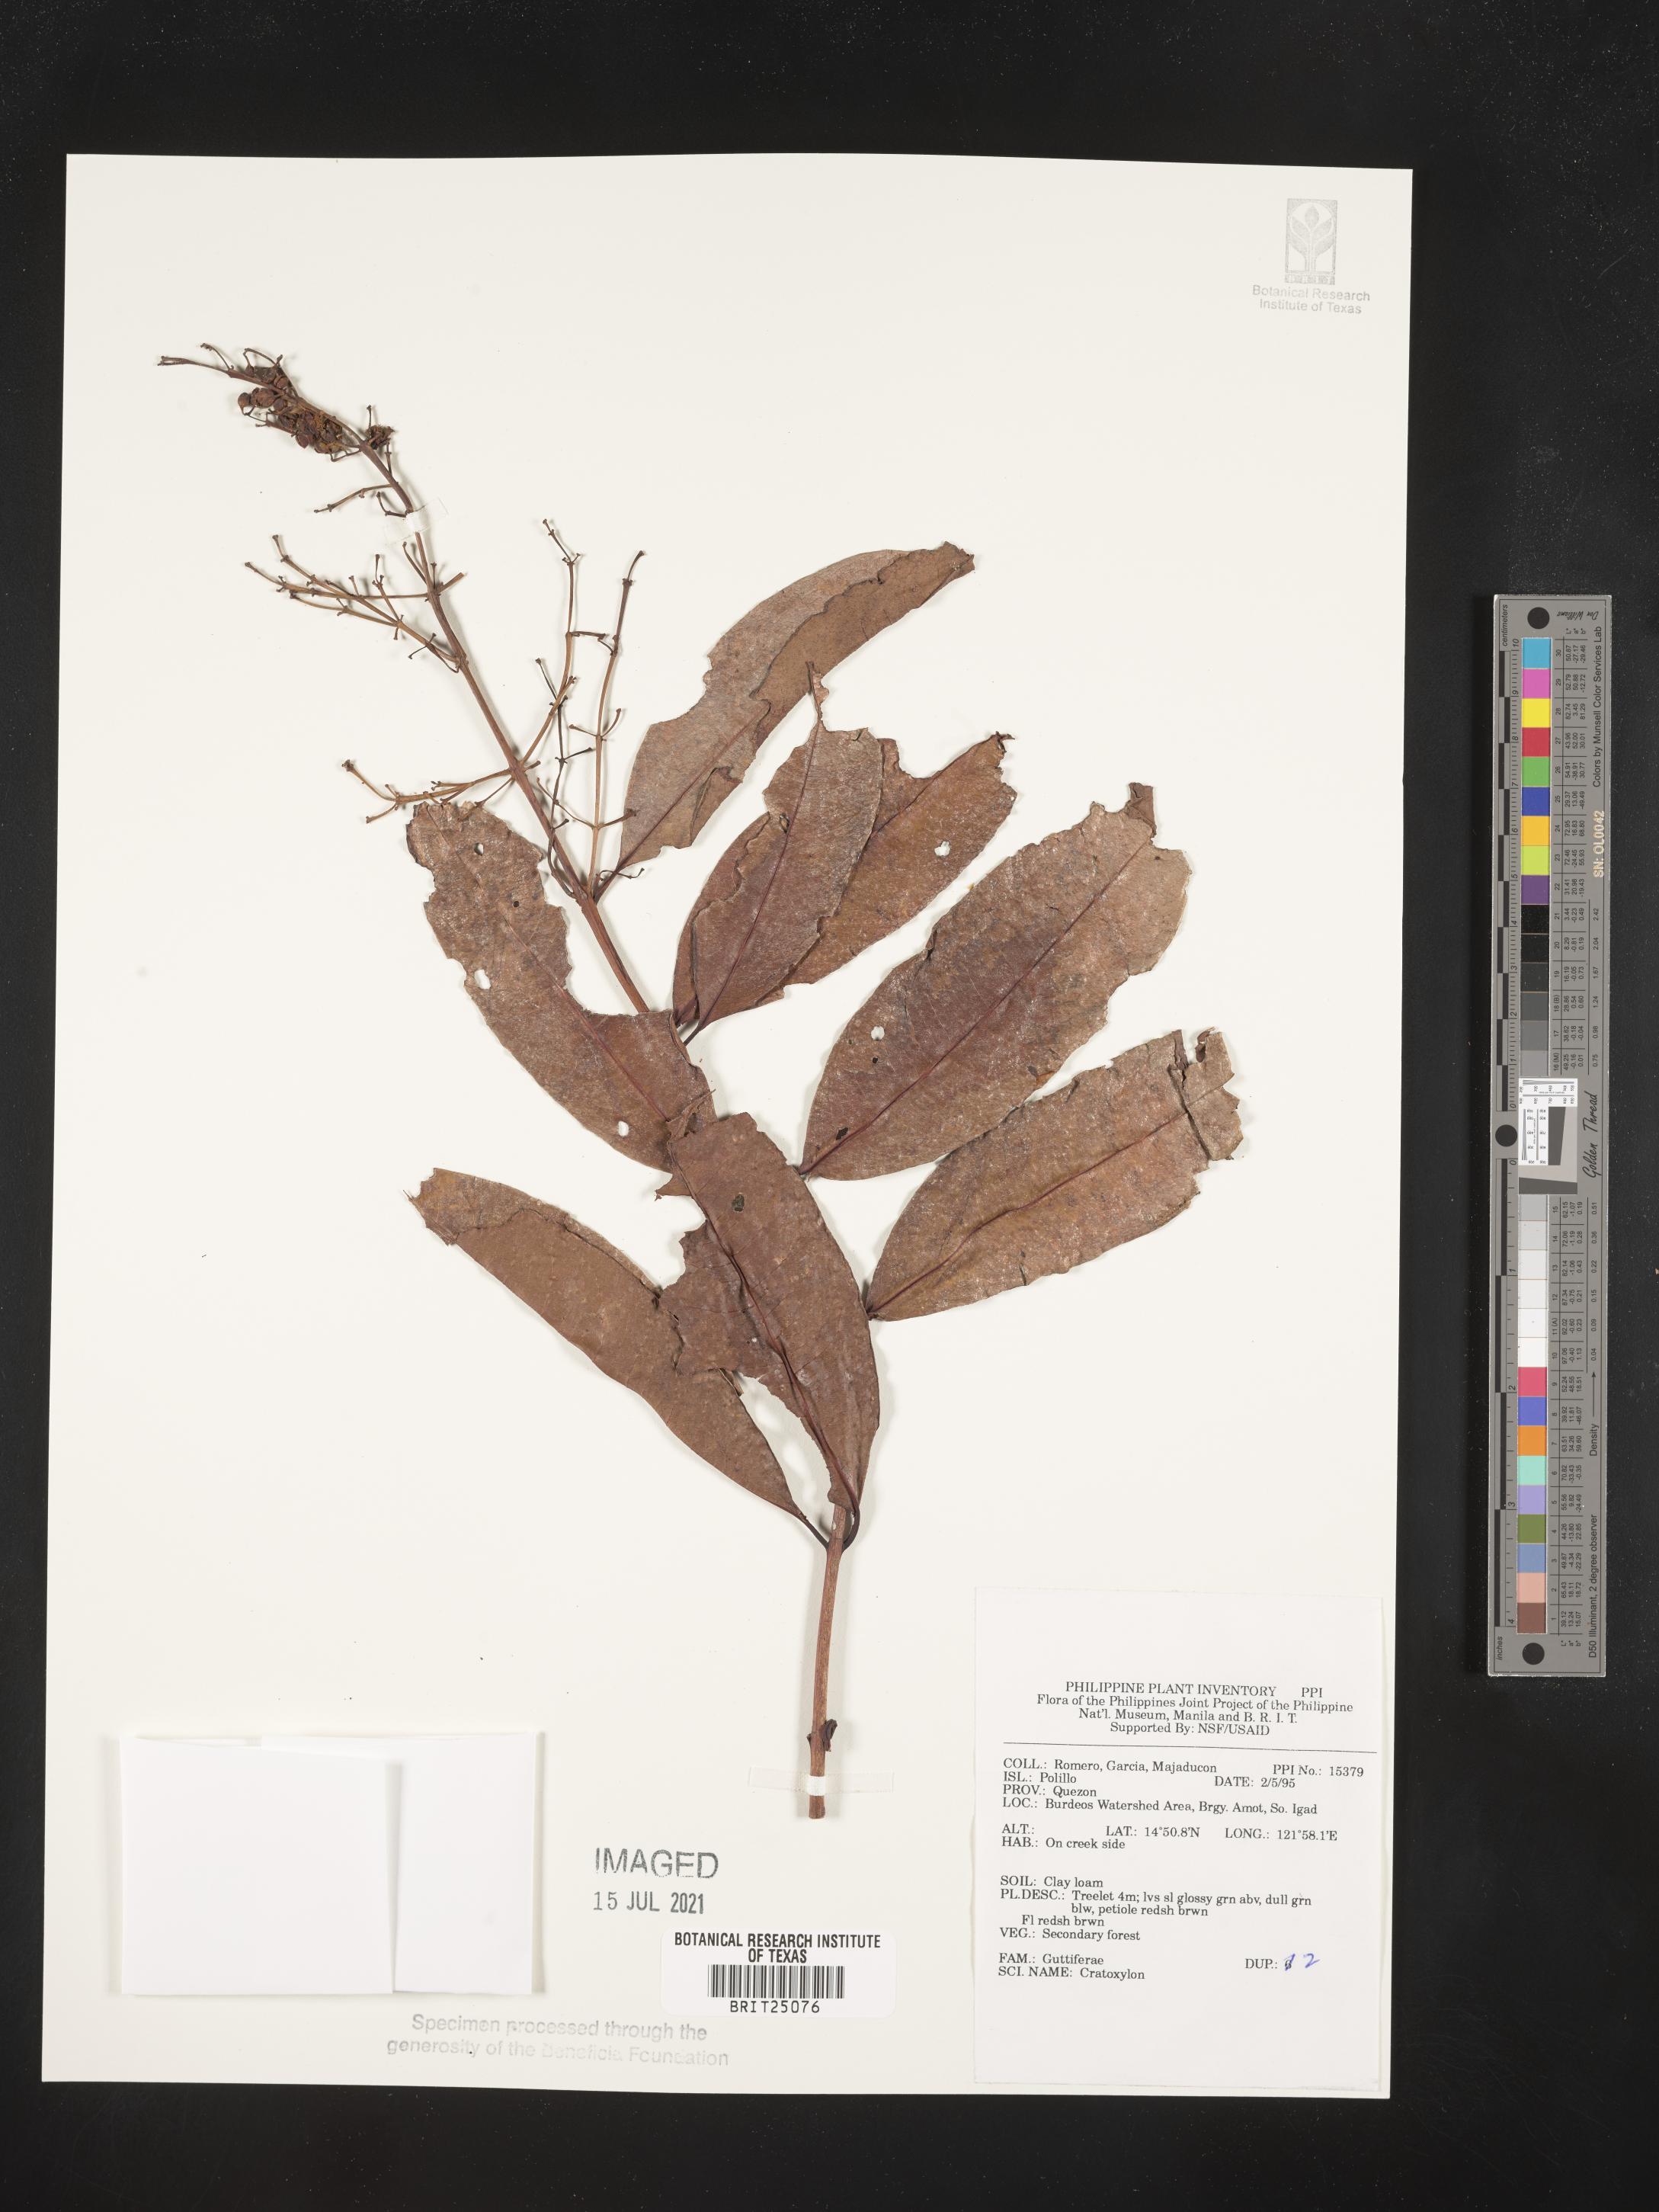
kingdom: Plantae
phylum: Tracheophyta
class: Magnoliopsida
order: Malpighiales
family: Hypericaceae
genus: Cratoxylum
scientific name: Cratoxylum
